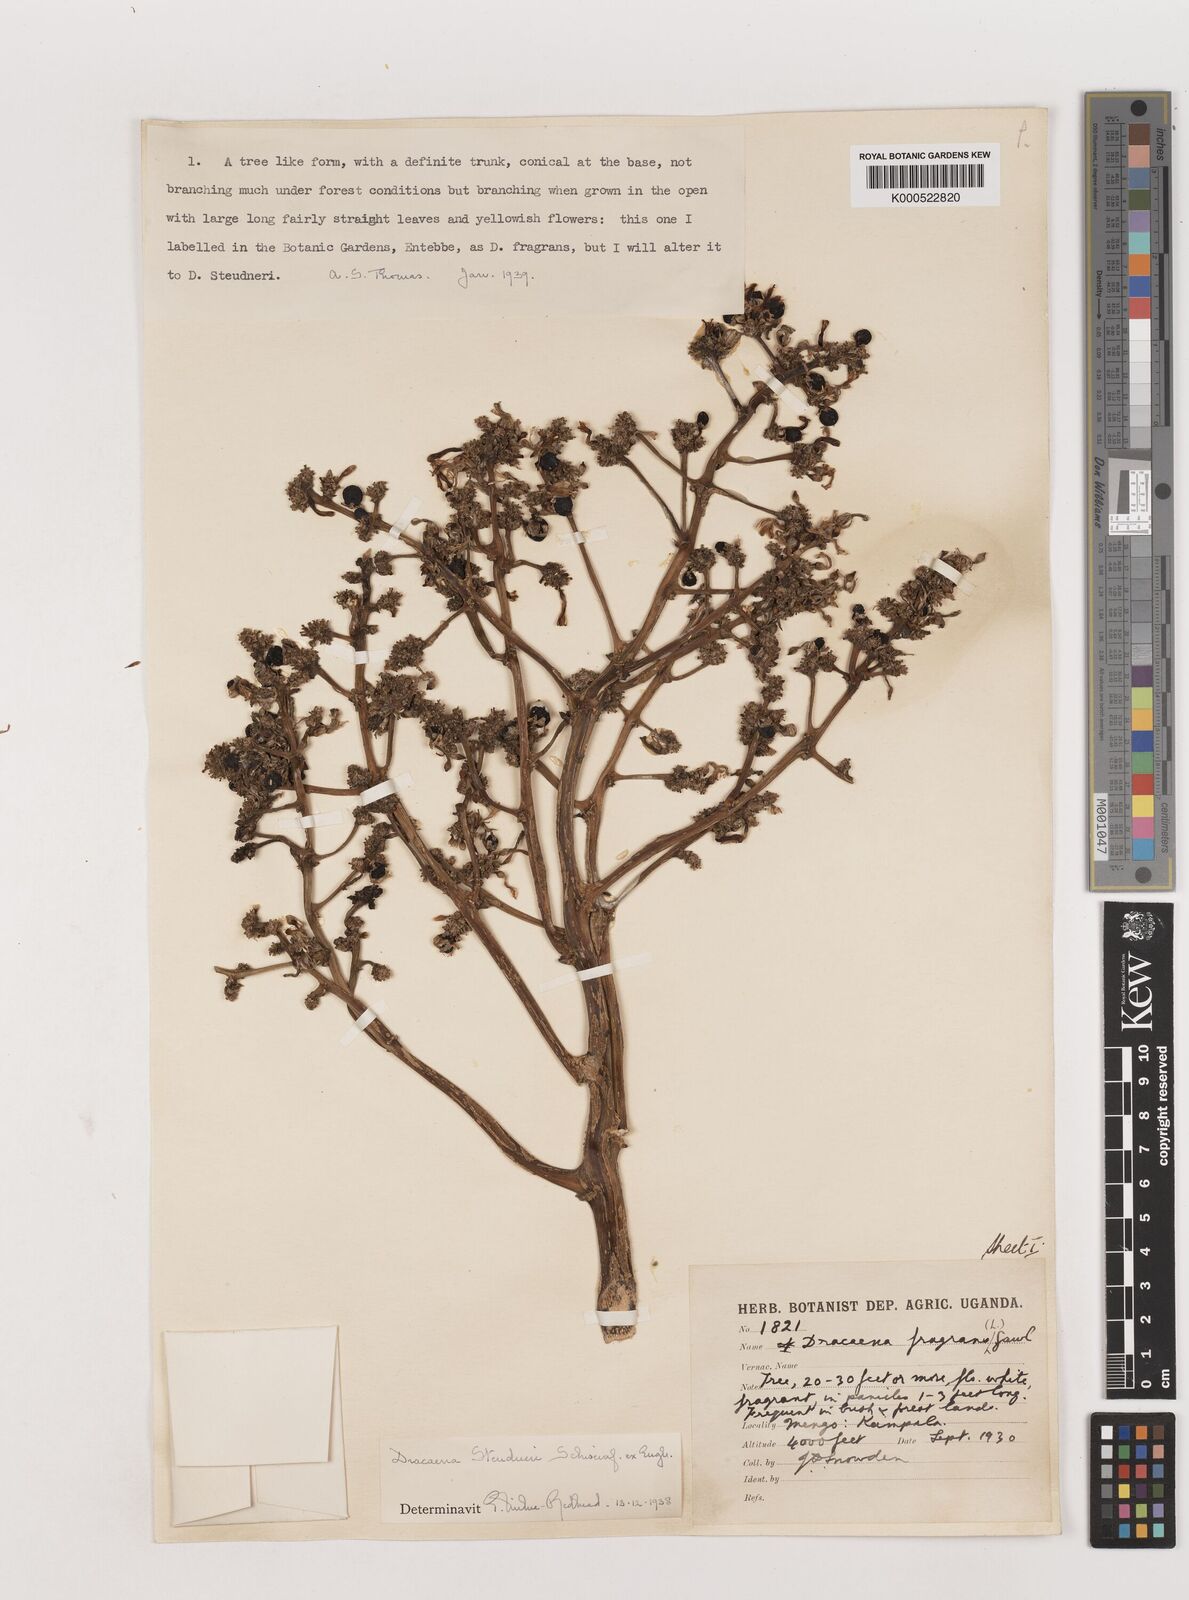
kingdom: Plantae
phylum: Tracheophyta
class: Liliopsida
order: Asparagales
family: Asparagaceae
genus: Dracaena
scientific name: Dracaena steudneri
